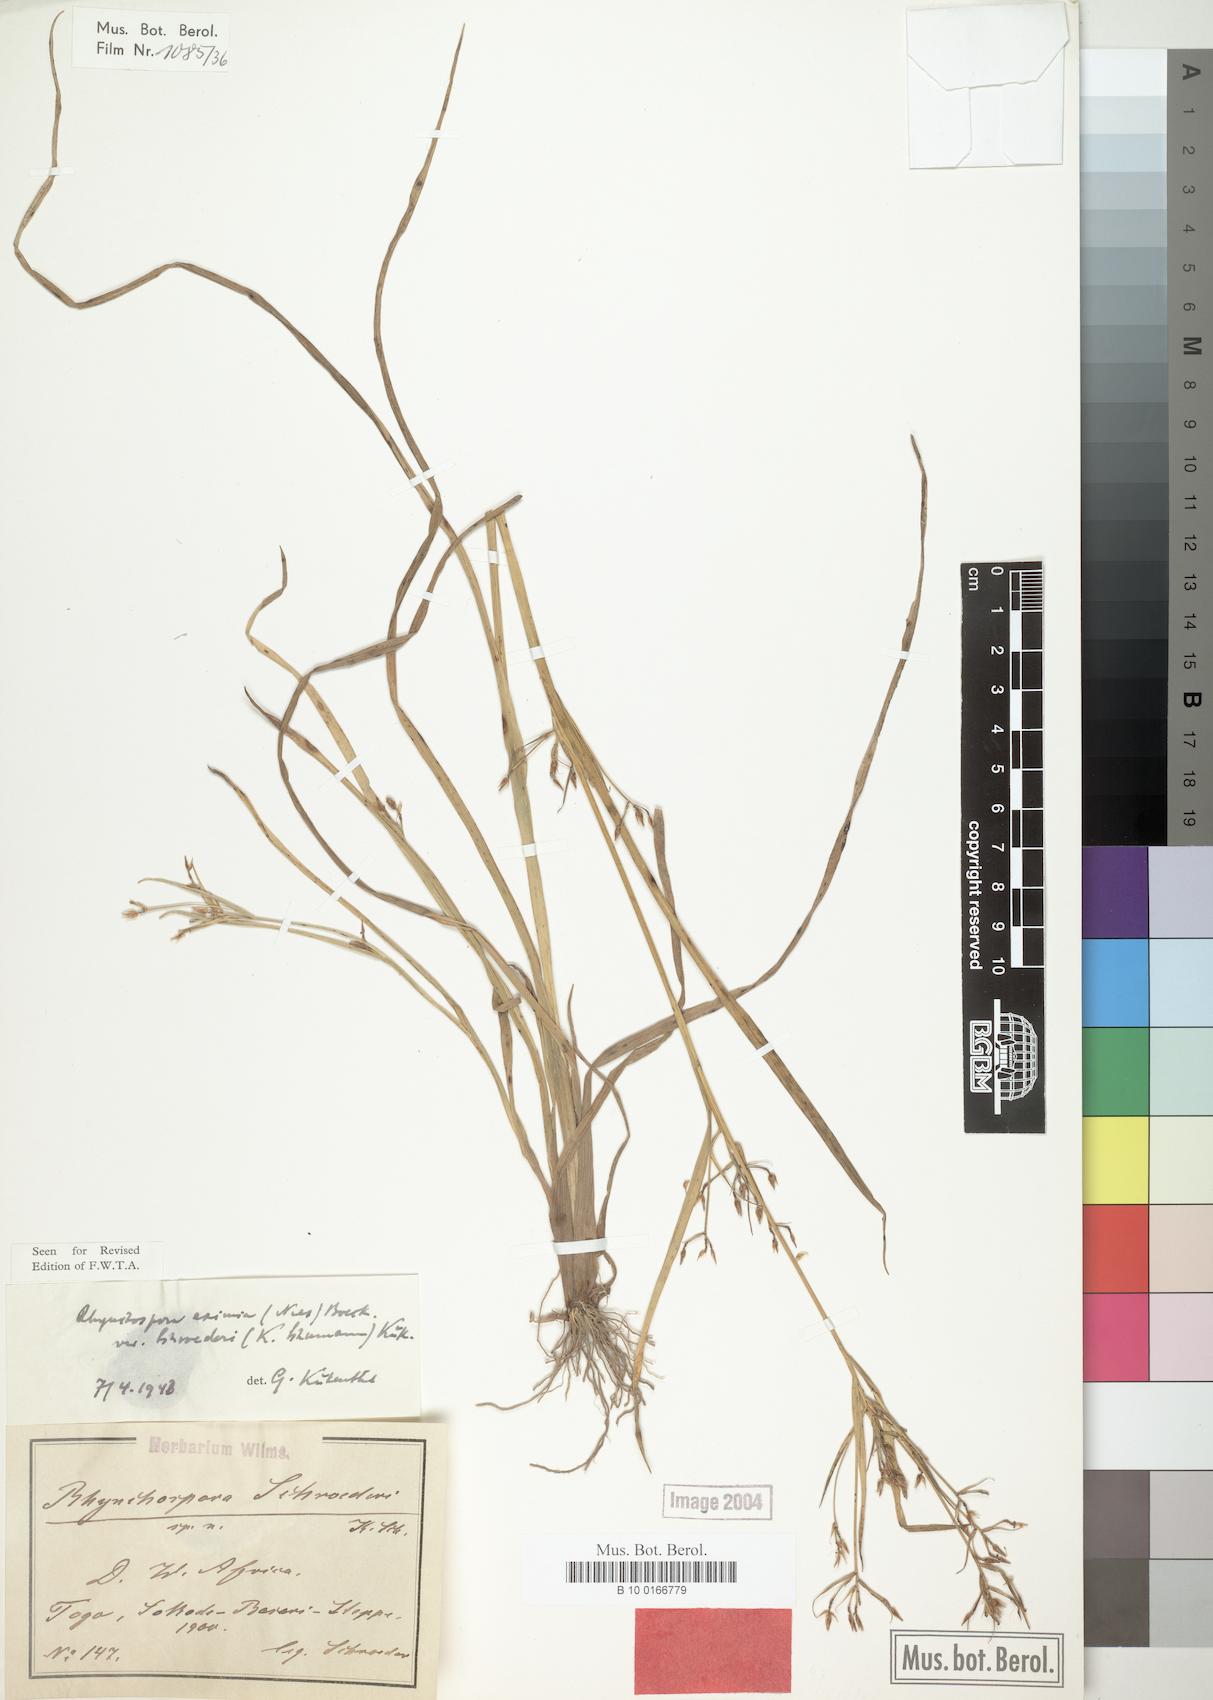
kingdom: Plantae
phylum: Tracheophyta
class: Liliopsida
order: Poales
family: Cyperaceae
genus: Rhynchospora
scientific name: Rhynchospora eximia
